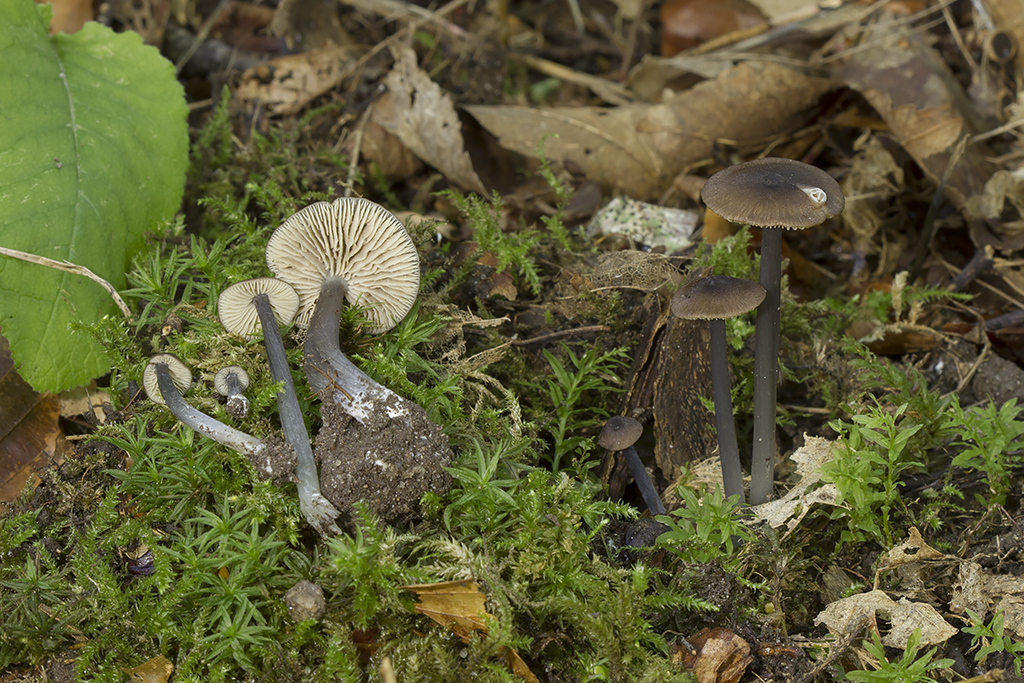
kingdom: Fungi
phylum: Basidiomycota
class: Agaricomycetes
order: Agaricales
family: Entolomataceae
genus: Entoloma
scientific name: Entoloma indikon
